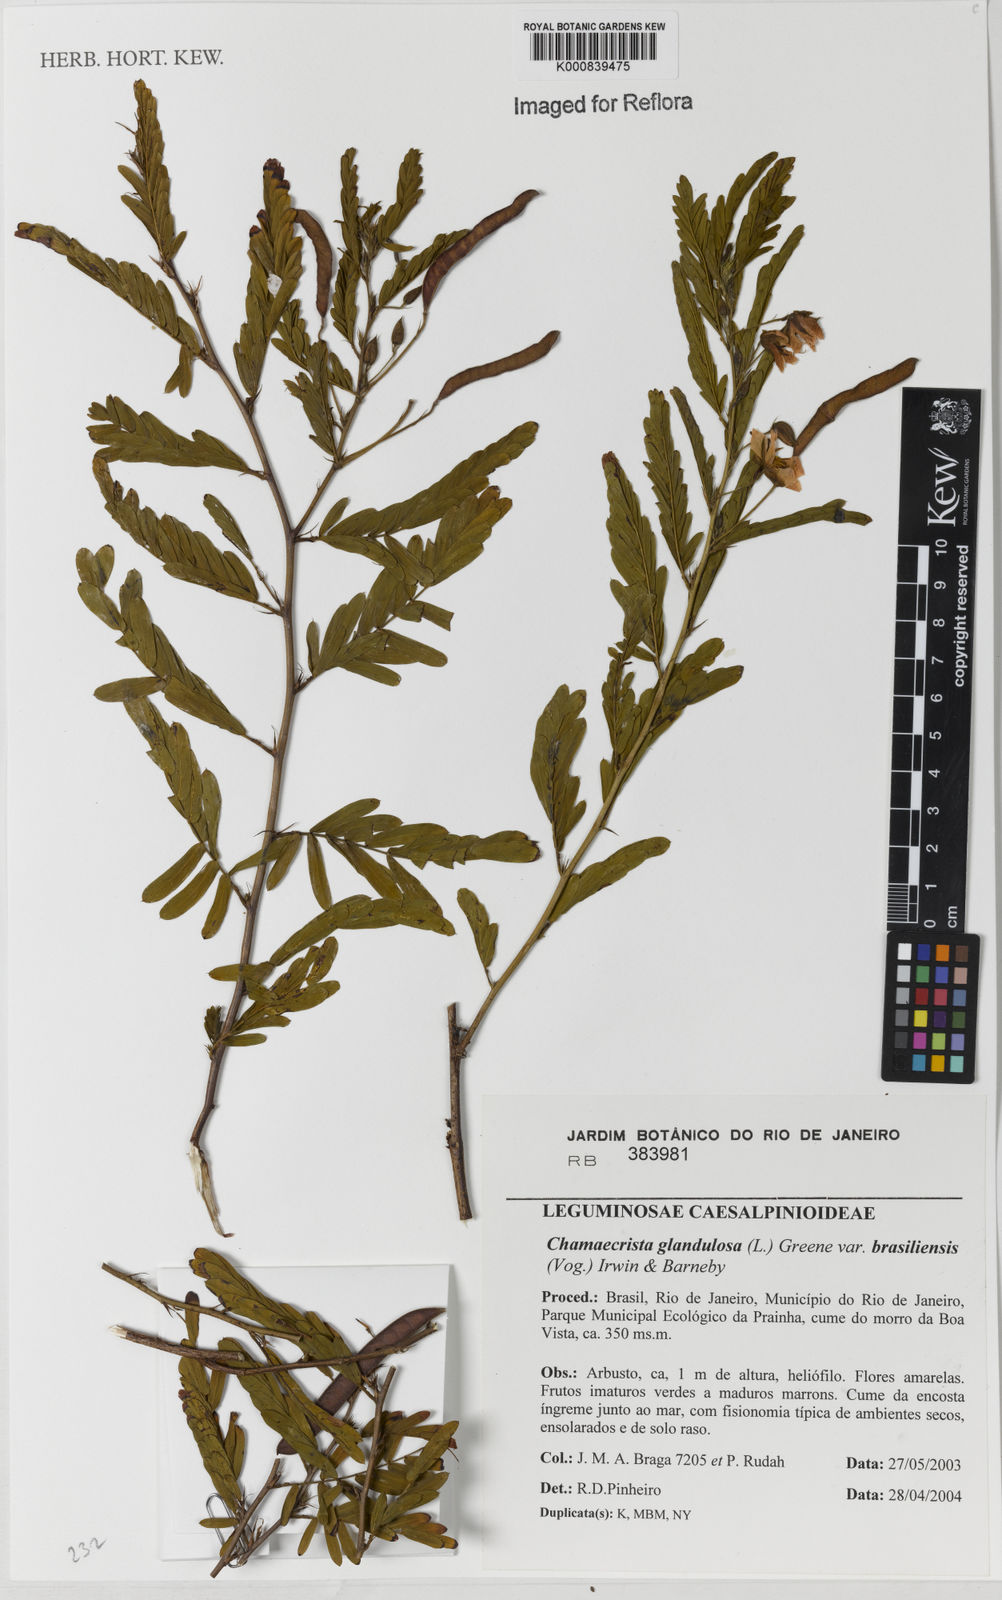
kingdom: Plantae
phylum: Tracheophyta
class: Magnoliopsida
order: Fabales
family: Fabaceae
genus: Chamaecrista
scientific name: Chamaecrista glandulosa
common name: Wild peas
